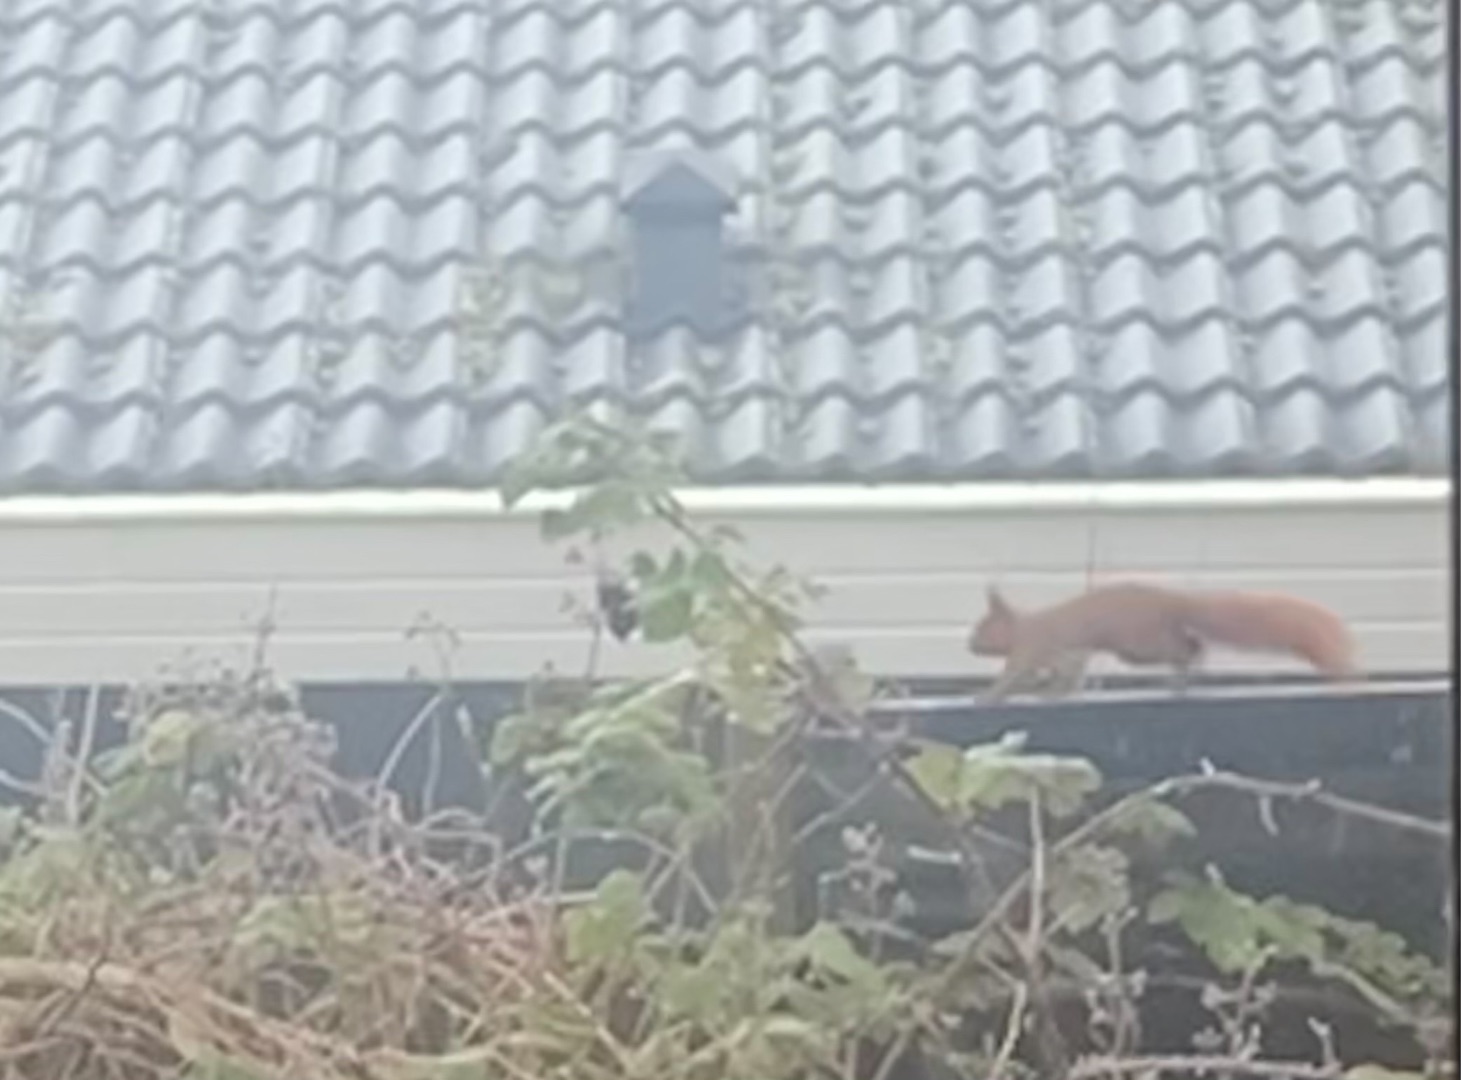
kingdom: Animalia
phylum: Chordata
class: Mammalia
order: Rodentia
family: Sciuridae
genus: Sciurus
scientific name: Sciurus vulgaris
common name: Egern
